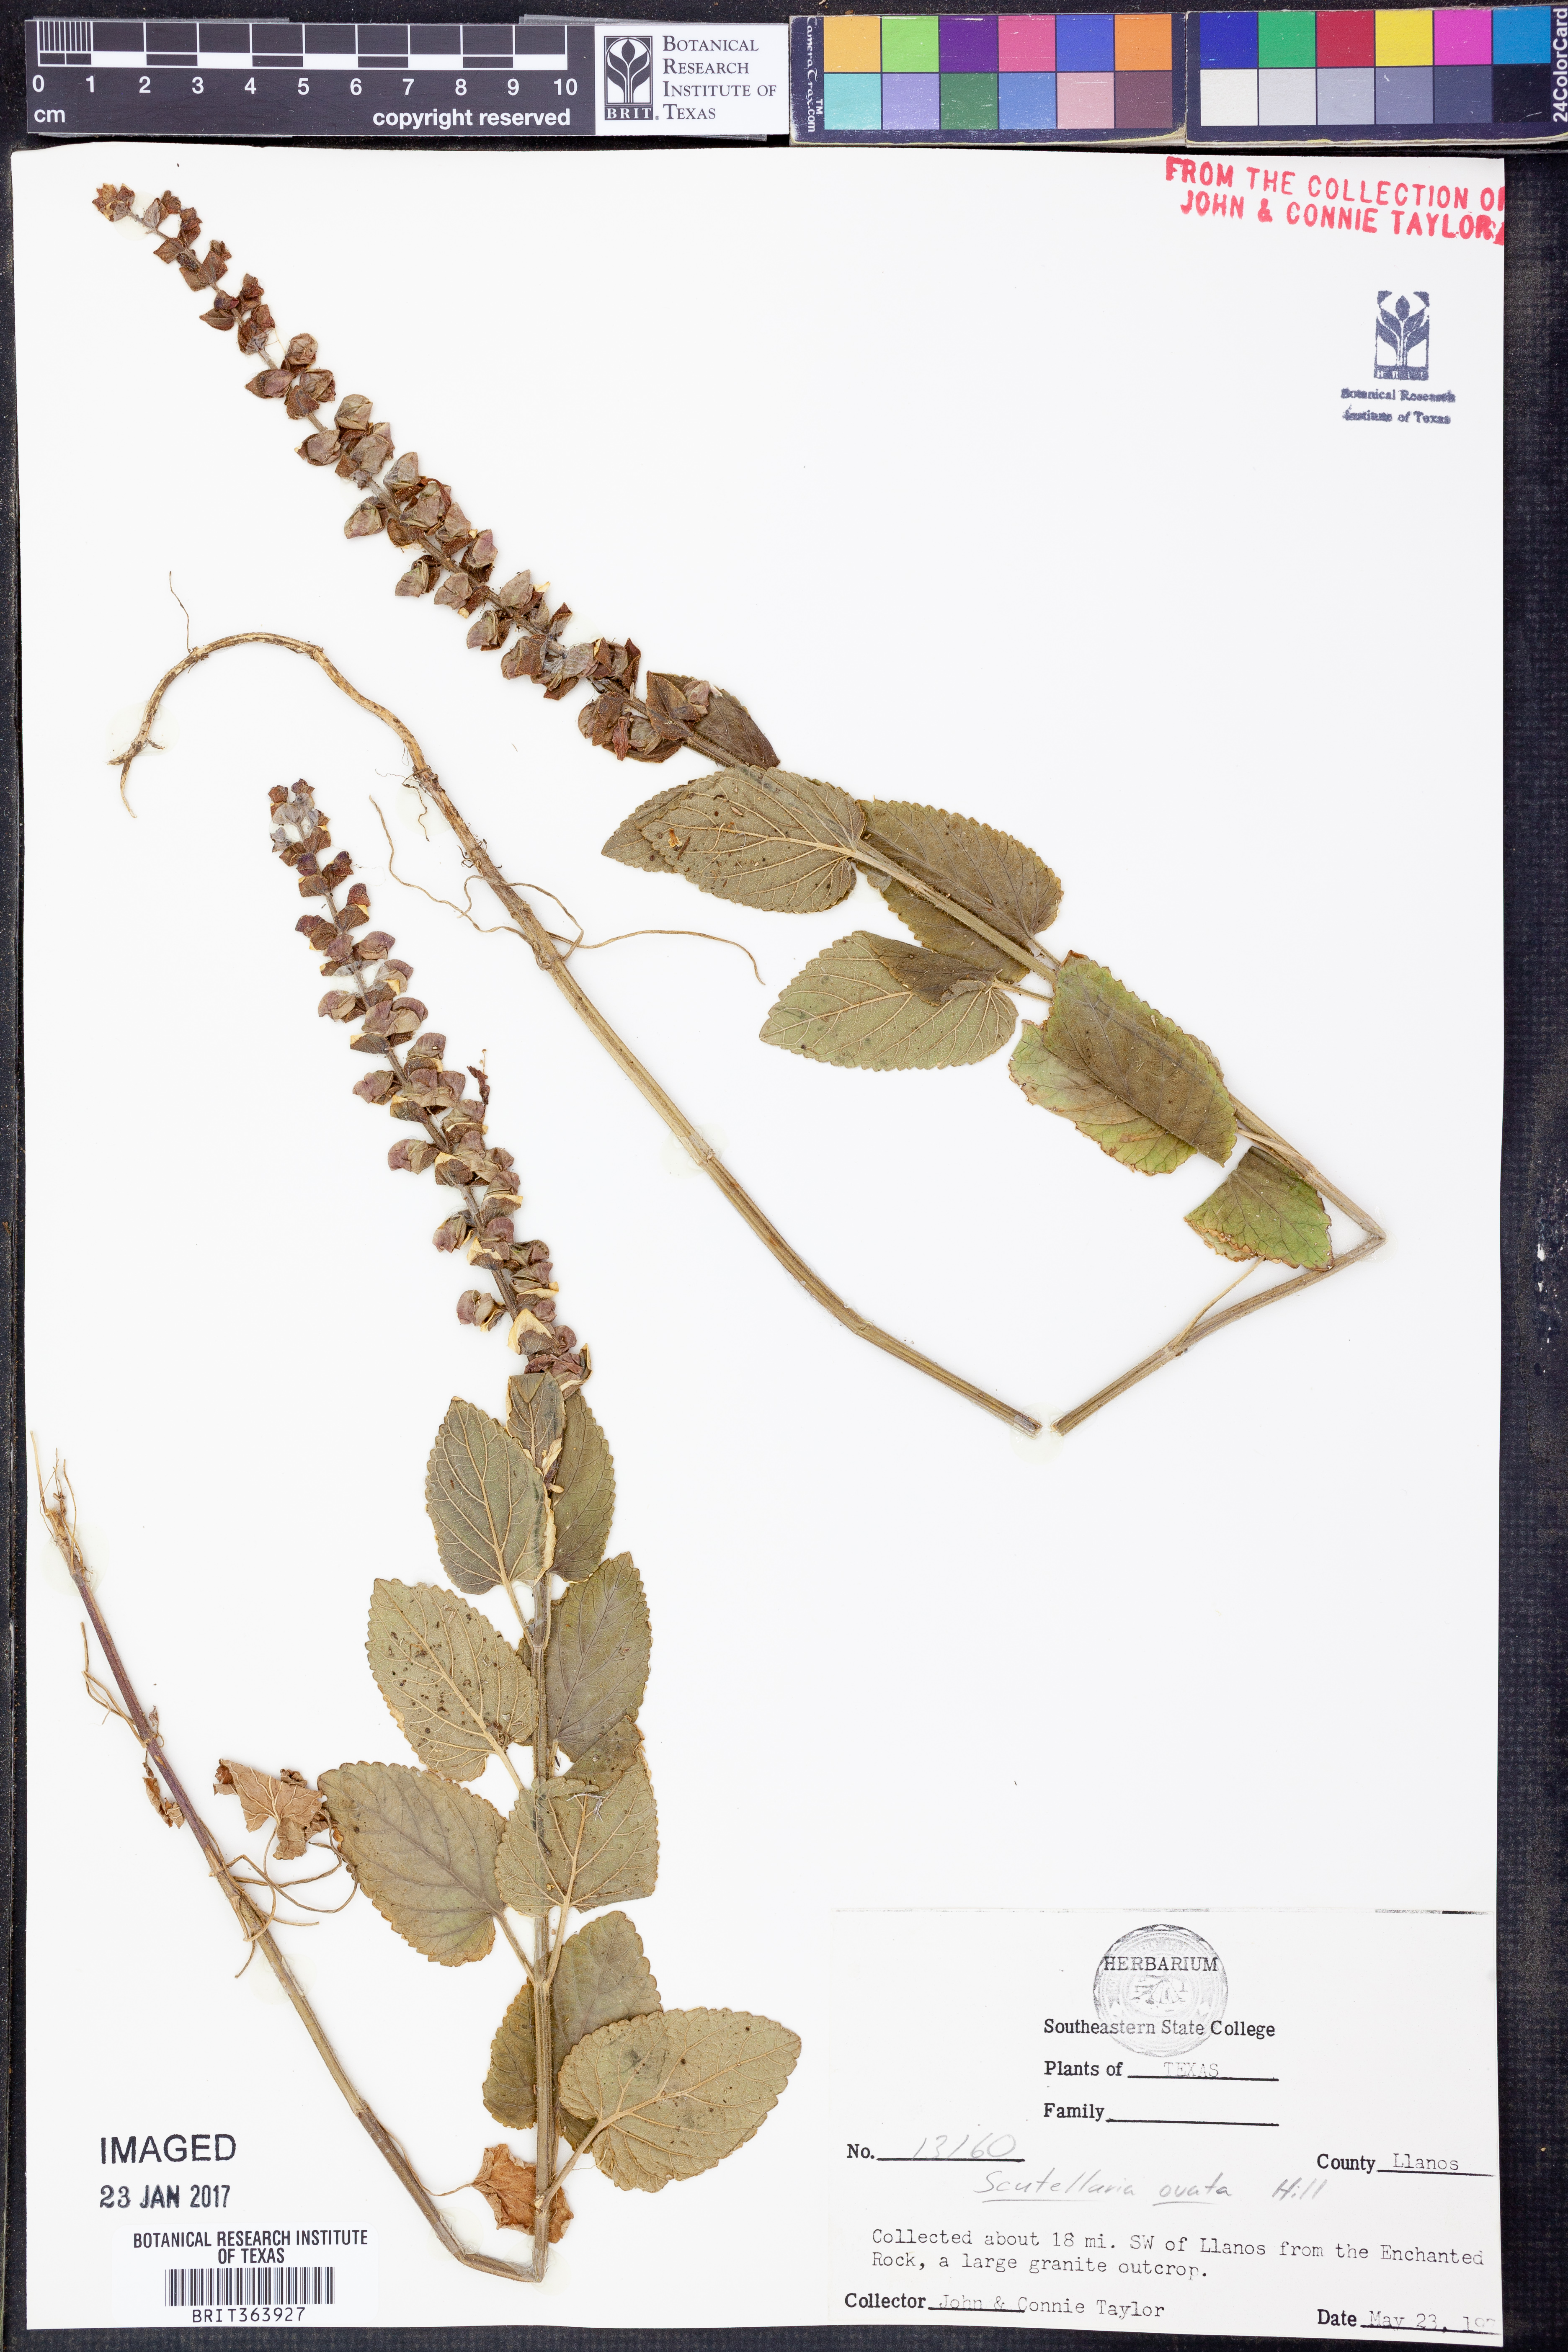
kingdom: Plantae
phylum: Tracheophyta
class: Magnoliopsida
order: Lamiales
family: Lamiaceae
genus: Scutellaria
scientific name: Scutellaria ovata
